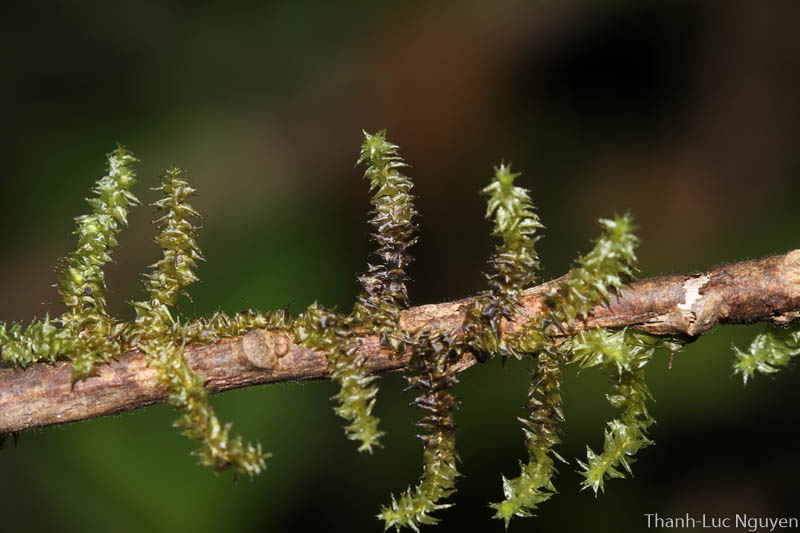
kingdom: Plantae
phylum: Bryophyta
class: Bryopsida
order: Hypnales
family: Meteoriaceae
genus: Aerobryopsis
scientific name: Aerobryopsis subdivergens
